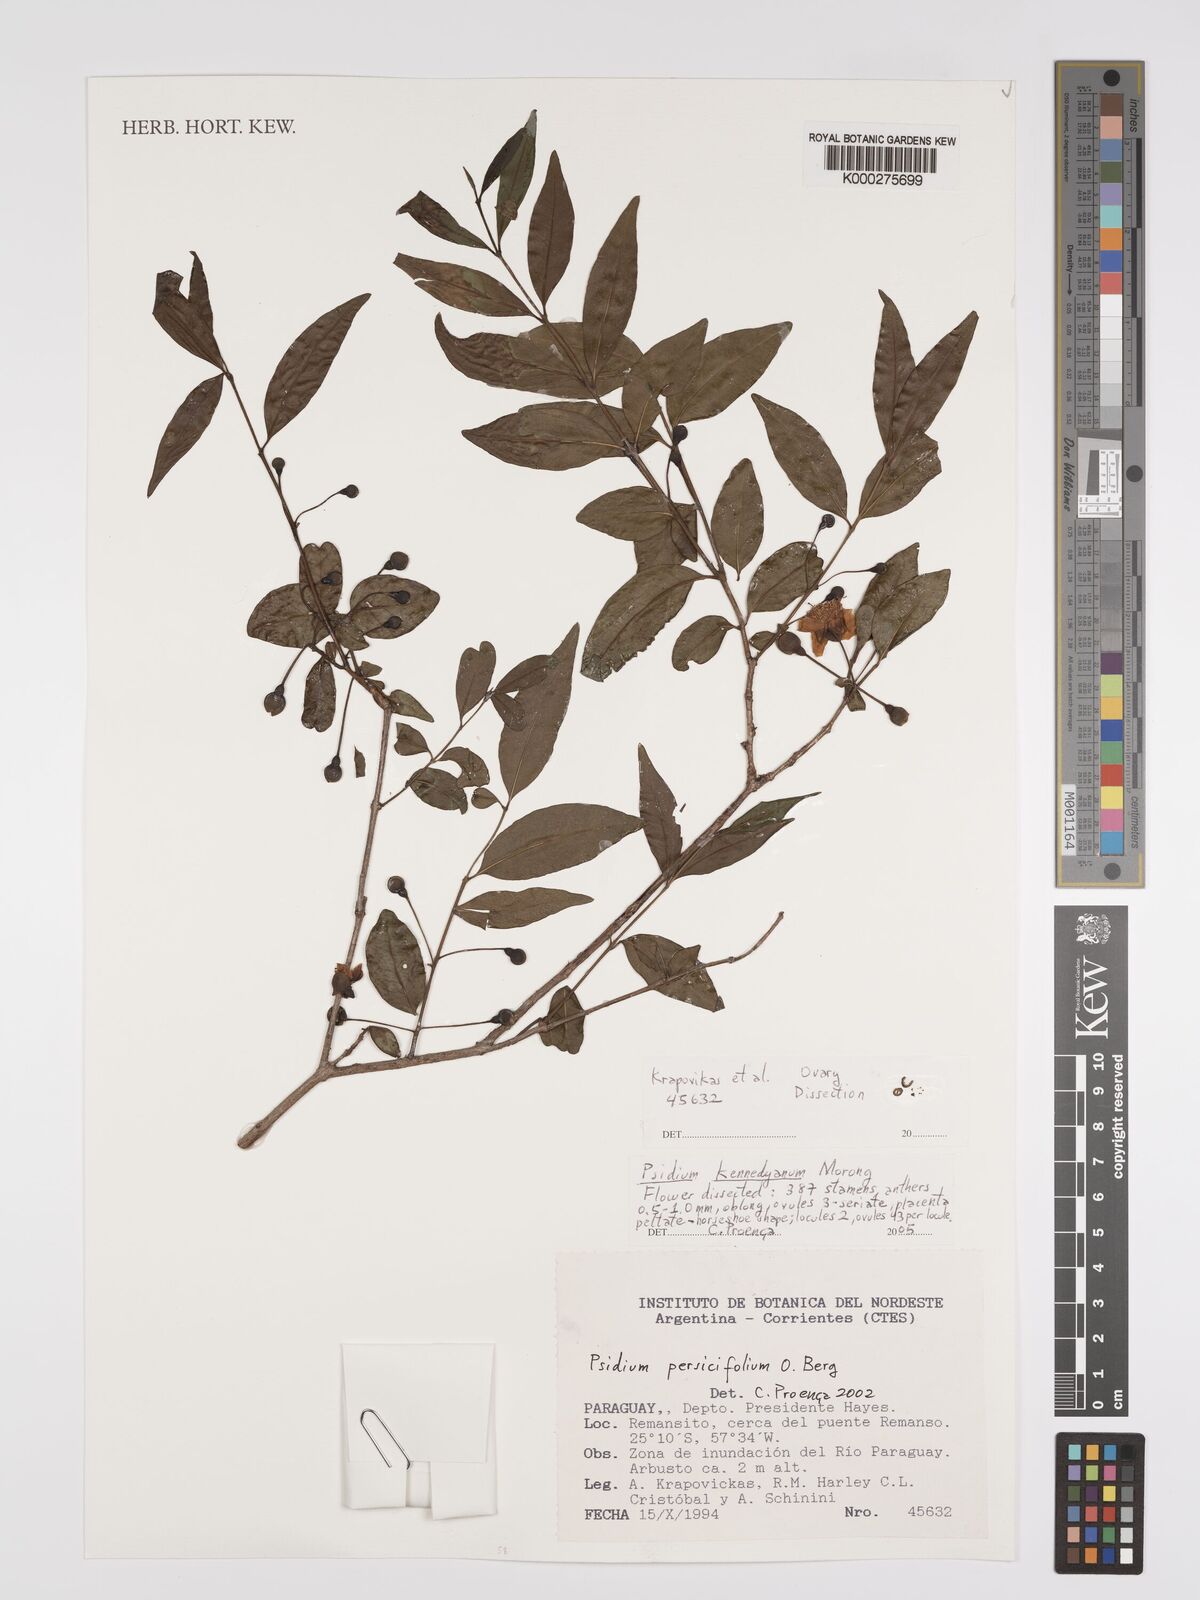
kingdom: Plantae
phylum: Tracheophyta
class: Magnoliopsida
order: Myrtales
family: Myrtaceae
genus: Psidium
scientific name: Psidium kennedyanum
